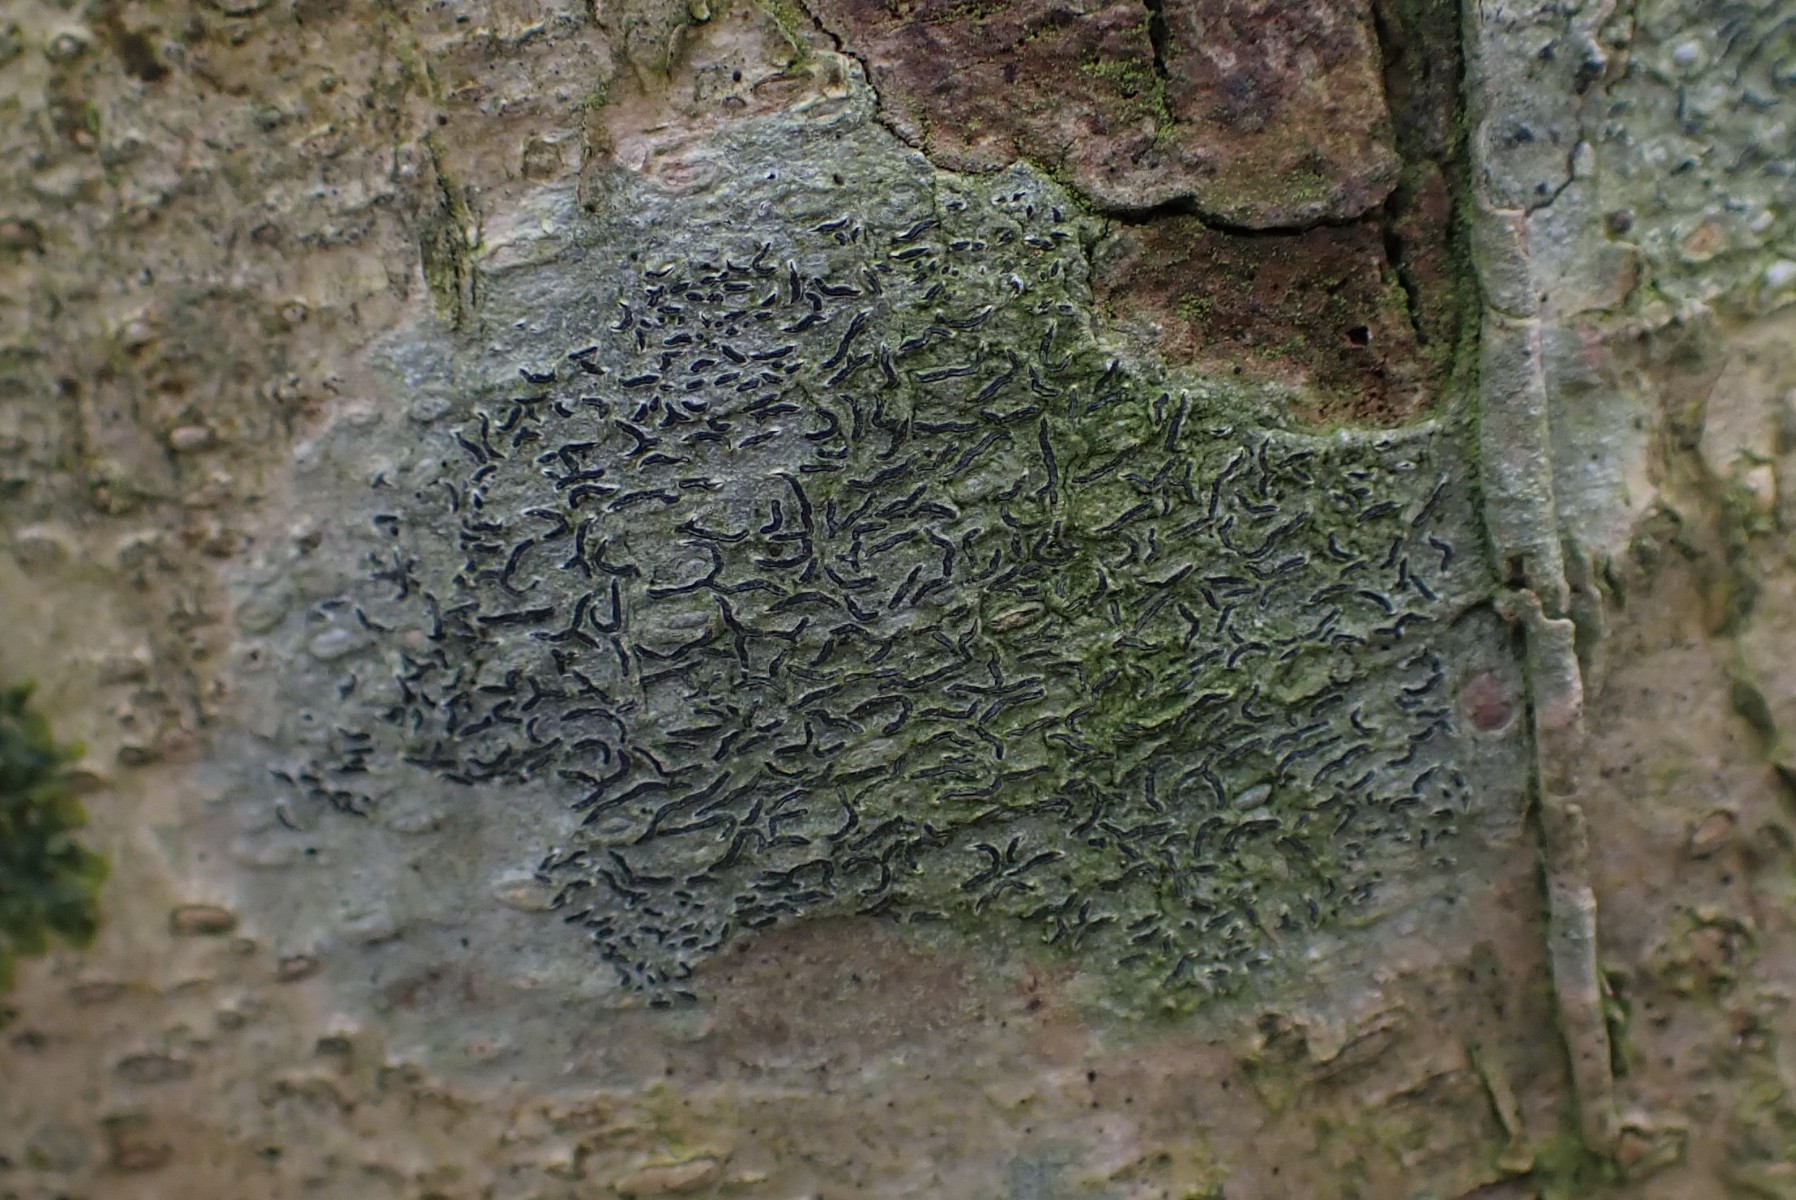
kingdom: Fungi
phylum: Ascomycota
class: Lecanoromycetes
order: Ostropales
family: Graphidaceae
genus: Graphis
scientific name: Graphis scripta
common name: almindelig skriftlav
